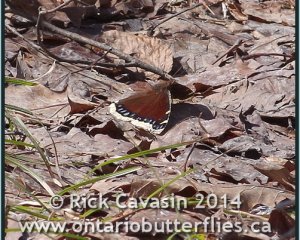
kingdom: Animalia
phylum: Arthropoda
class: Insecta
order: Lepidoptera
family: Nymphalidae
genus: Nymphalis
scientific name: Nymphalis antiopa
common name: Mourning Cloak
